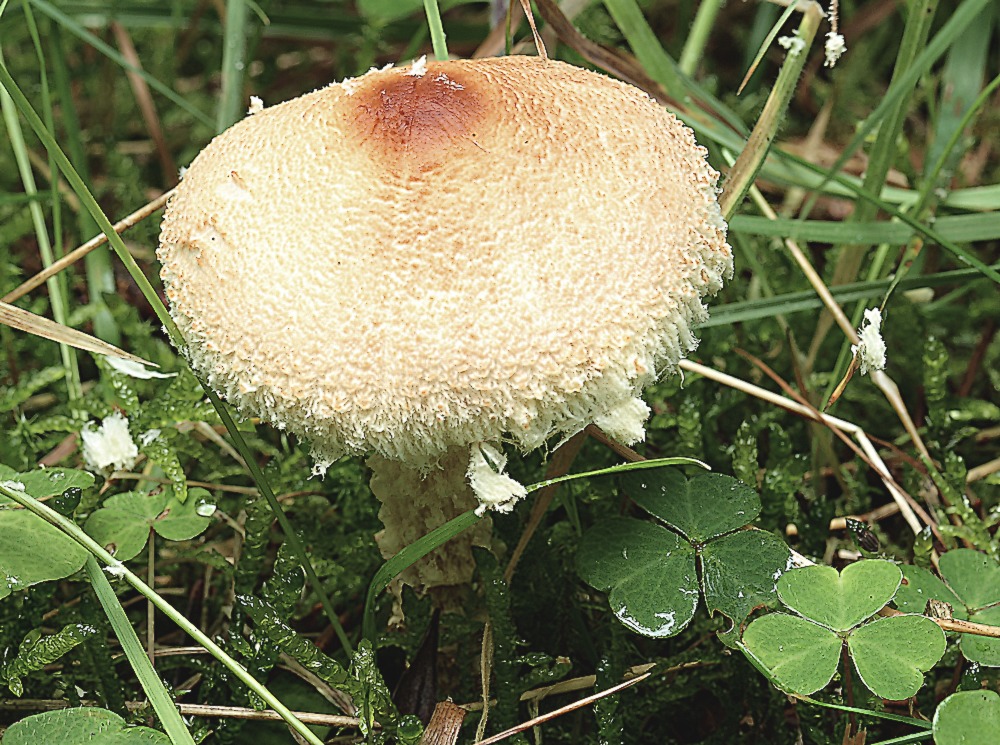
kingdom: Fungi
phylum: Basidiomycota
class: Agaricomycetes
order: Agaricales
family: Agaricaceae
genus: Lepiota
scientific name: Lepiota
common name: parasolhat
